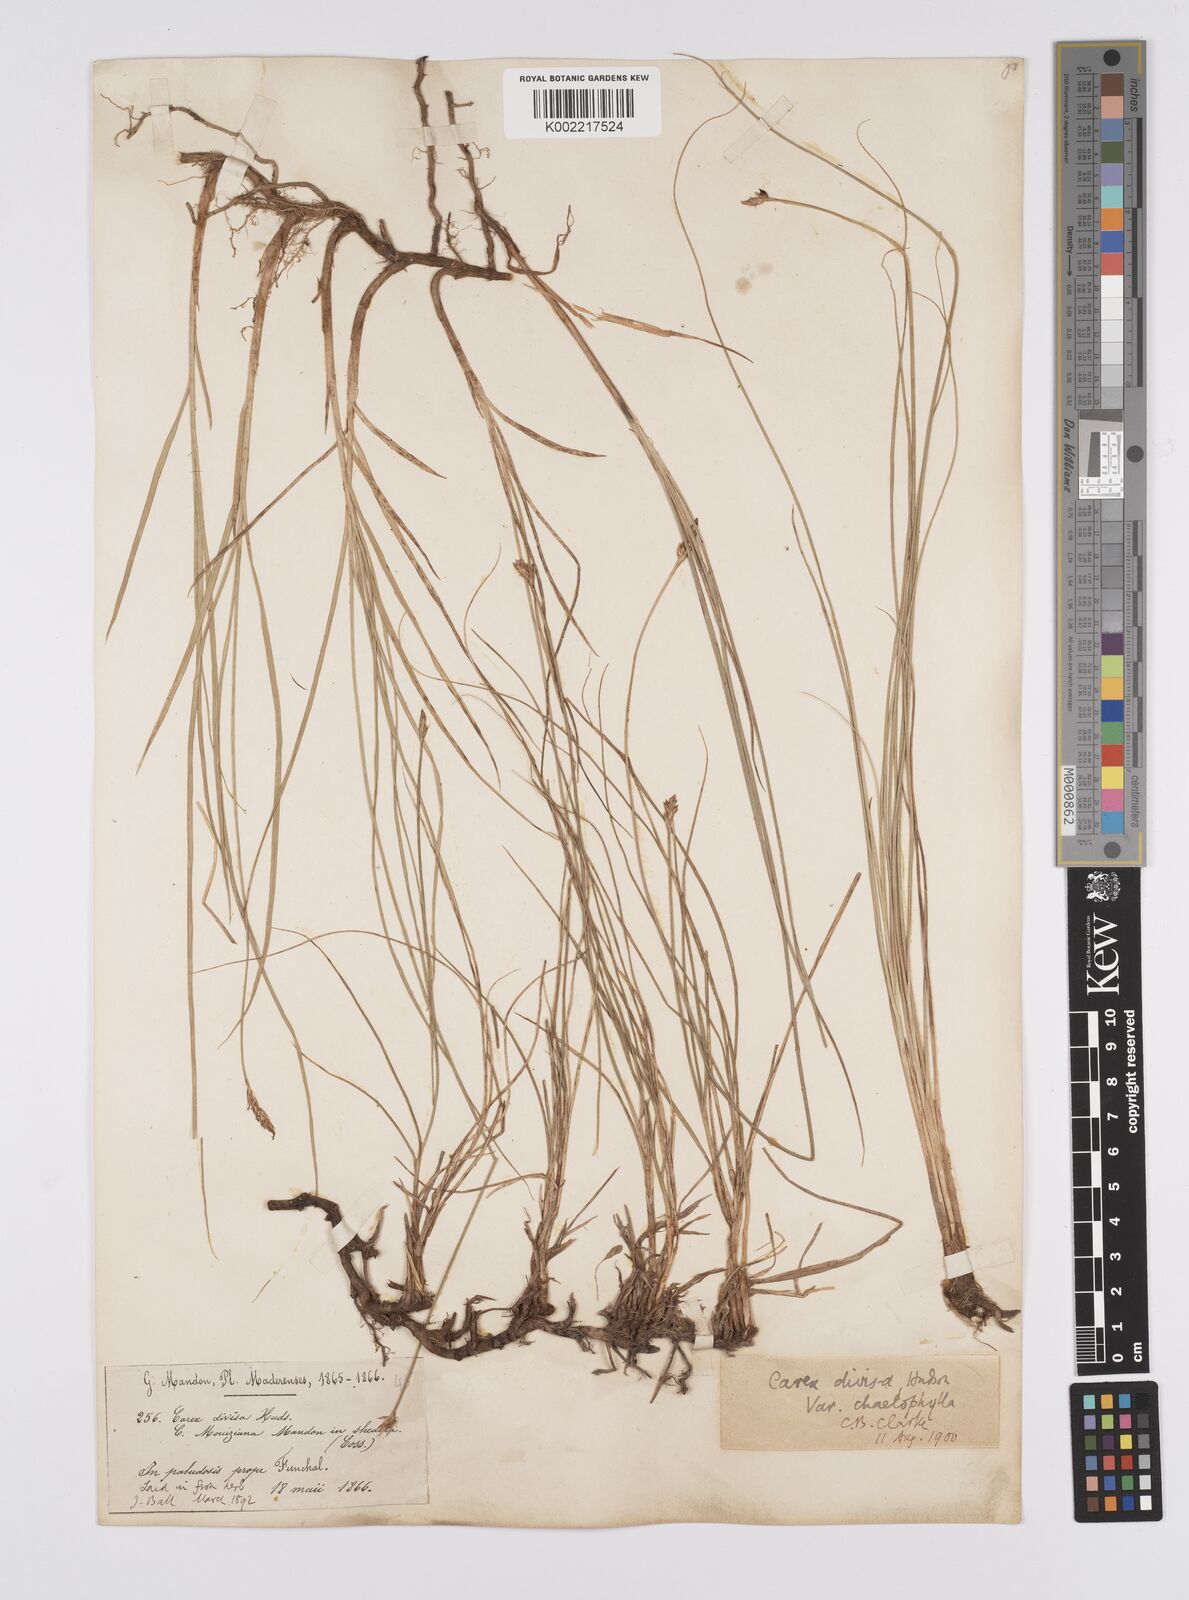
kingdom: Plantae
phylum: Tracheophyta
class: Liliopsida
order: Poales
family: Cyperaceae
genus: Carex
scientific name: Carex divisa
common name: Divided sedge
